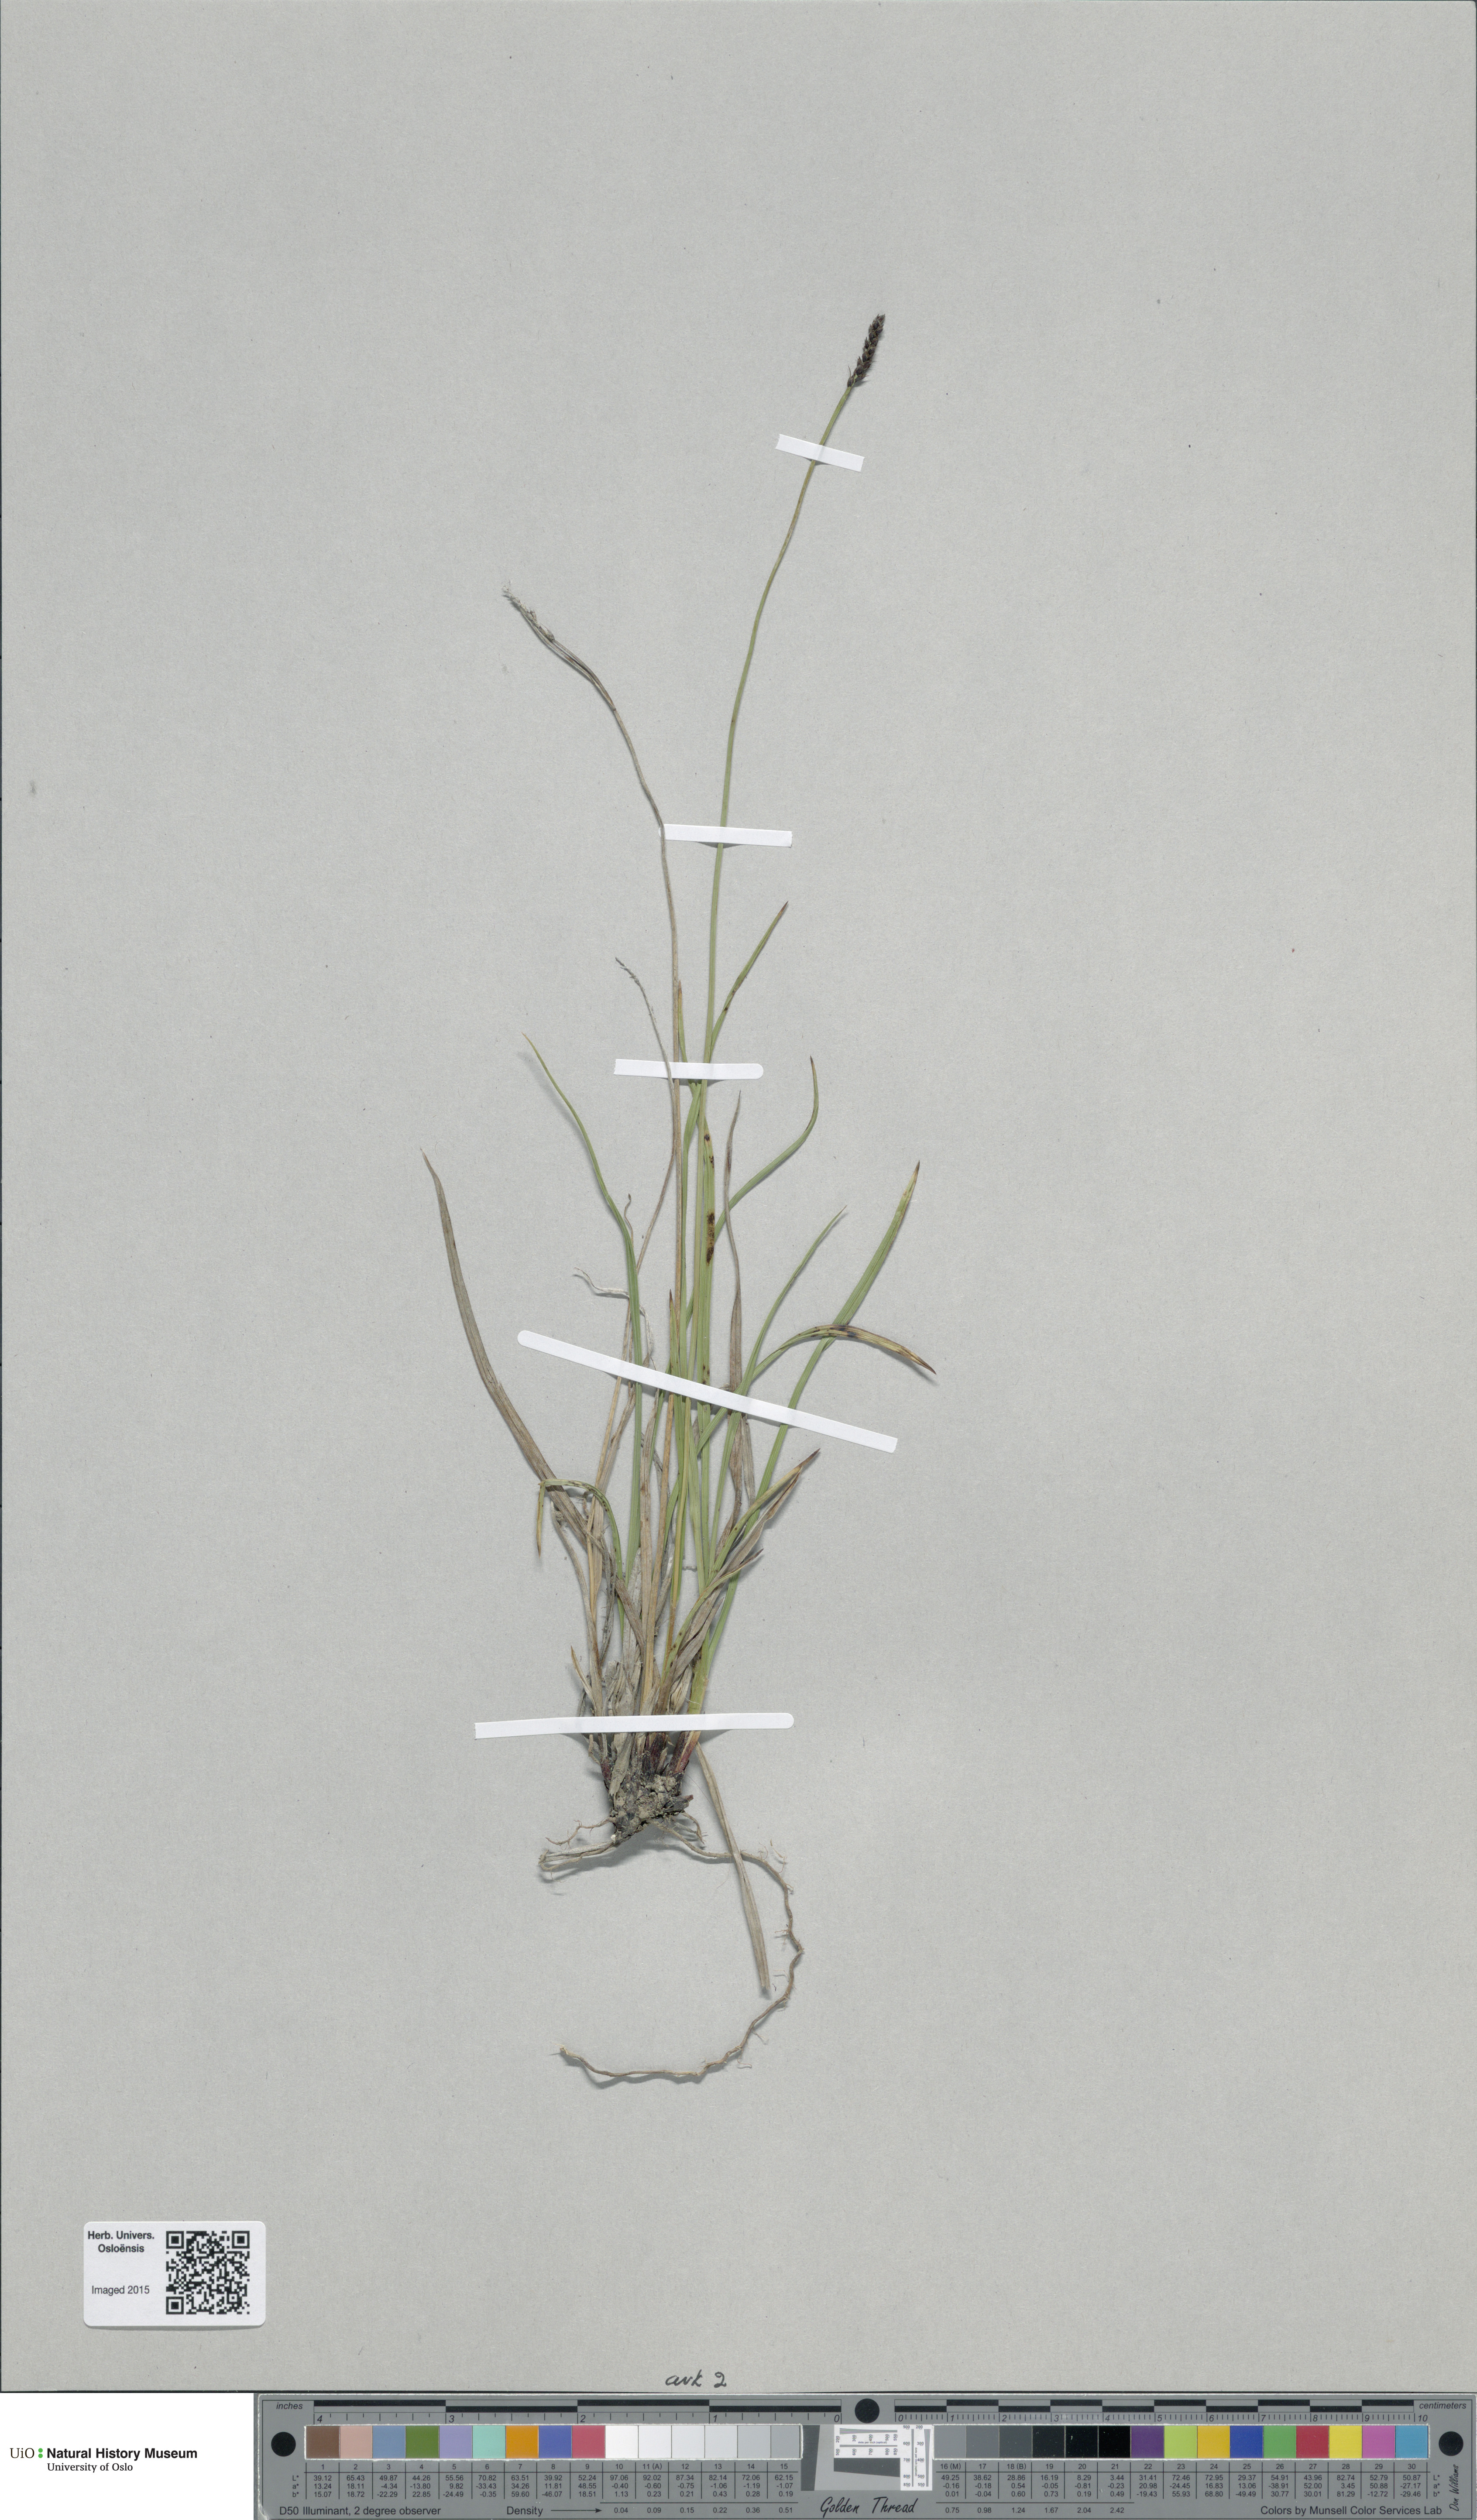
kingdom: Plantae
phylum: Tracheophyta
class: Liliopsida
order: Poales
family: Cyperaceae
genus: Carex
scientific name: Carex scirpoidea
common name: Canada single-spike sedge
